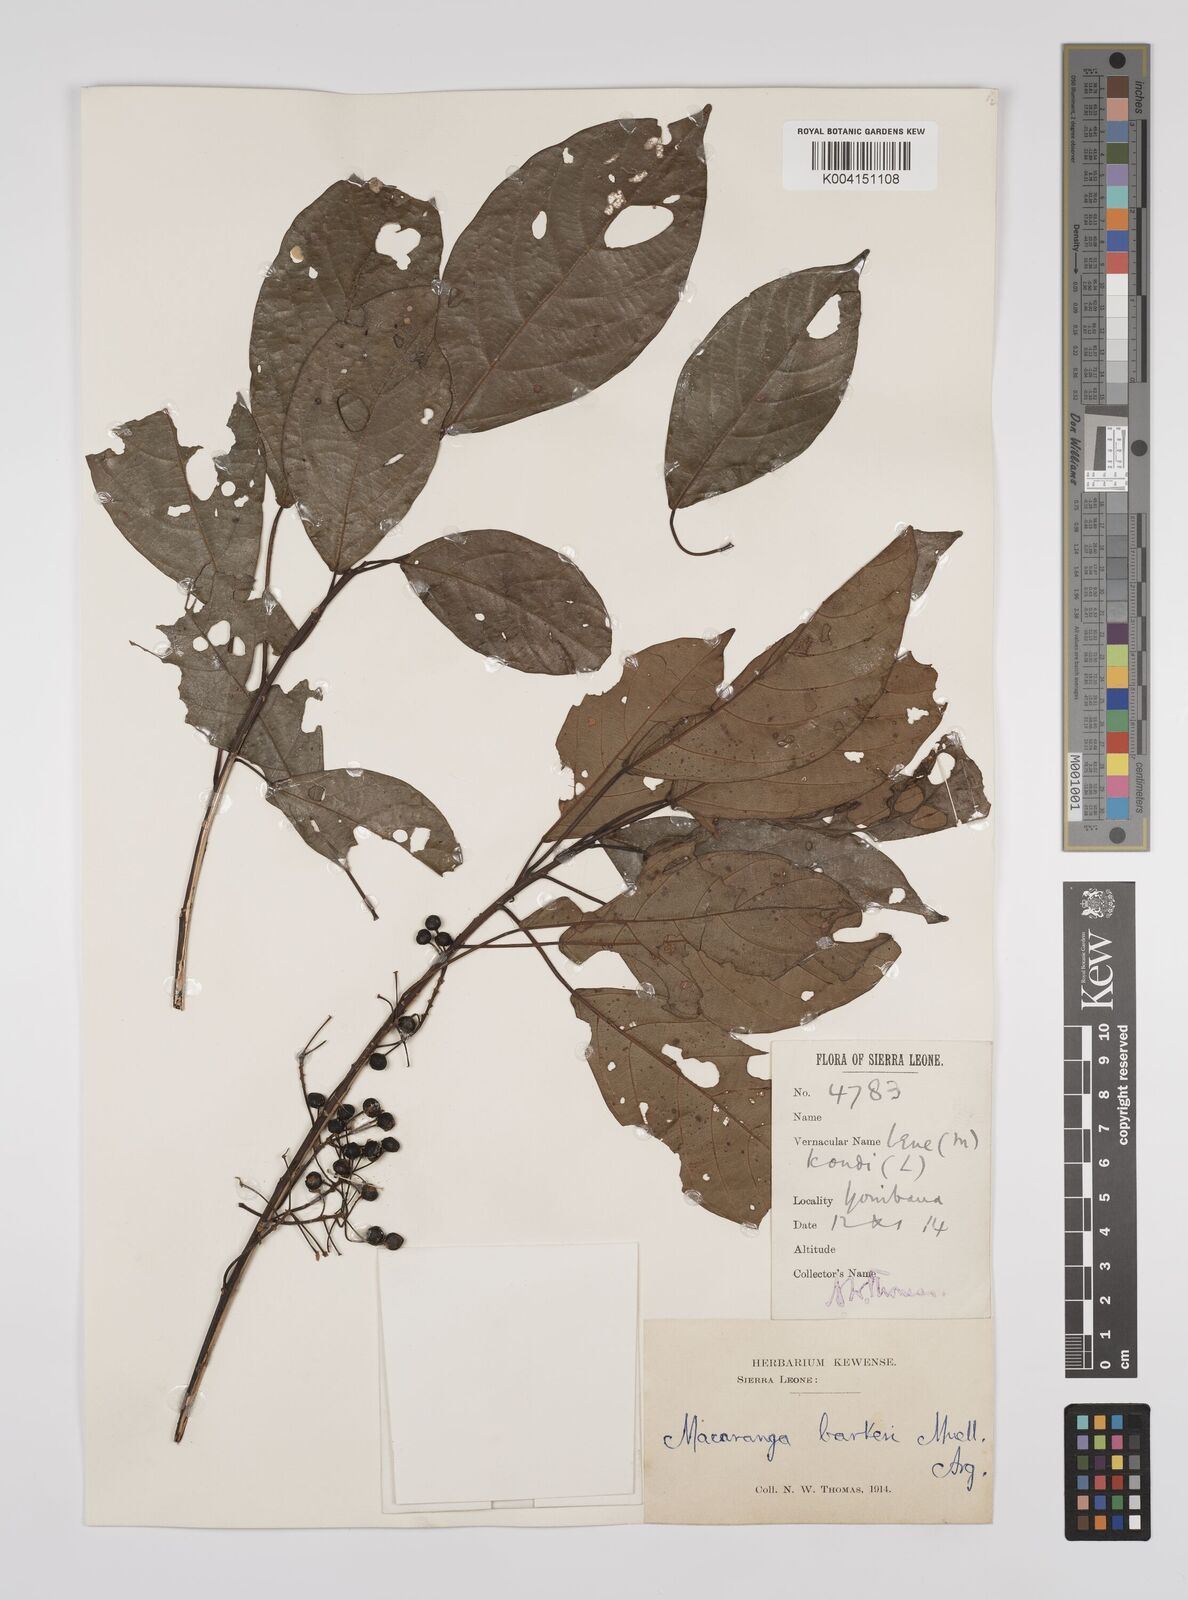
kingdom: Plantae
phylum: Tracheophyta
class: Magnoliopsida
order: Malpighiales
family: Euphorbiaceae
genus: Macaranga
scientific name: Macaranga barteri
